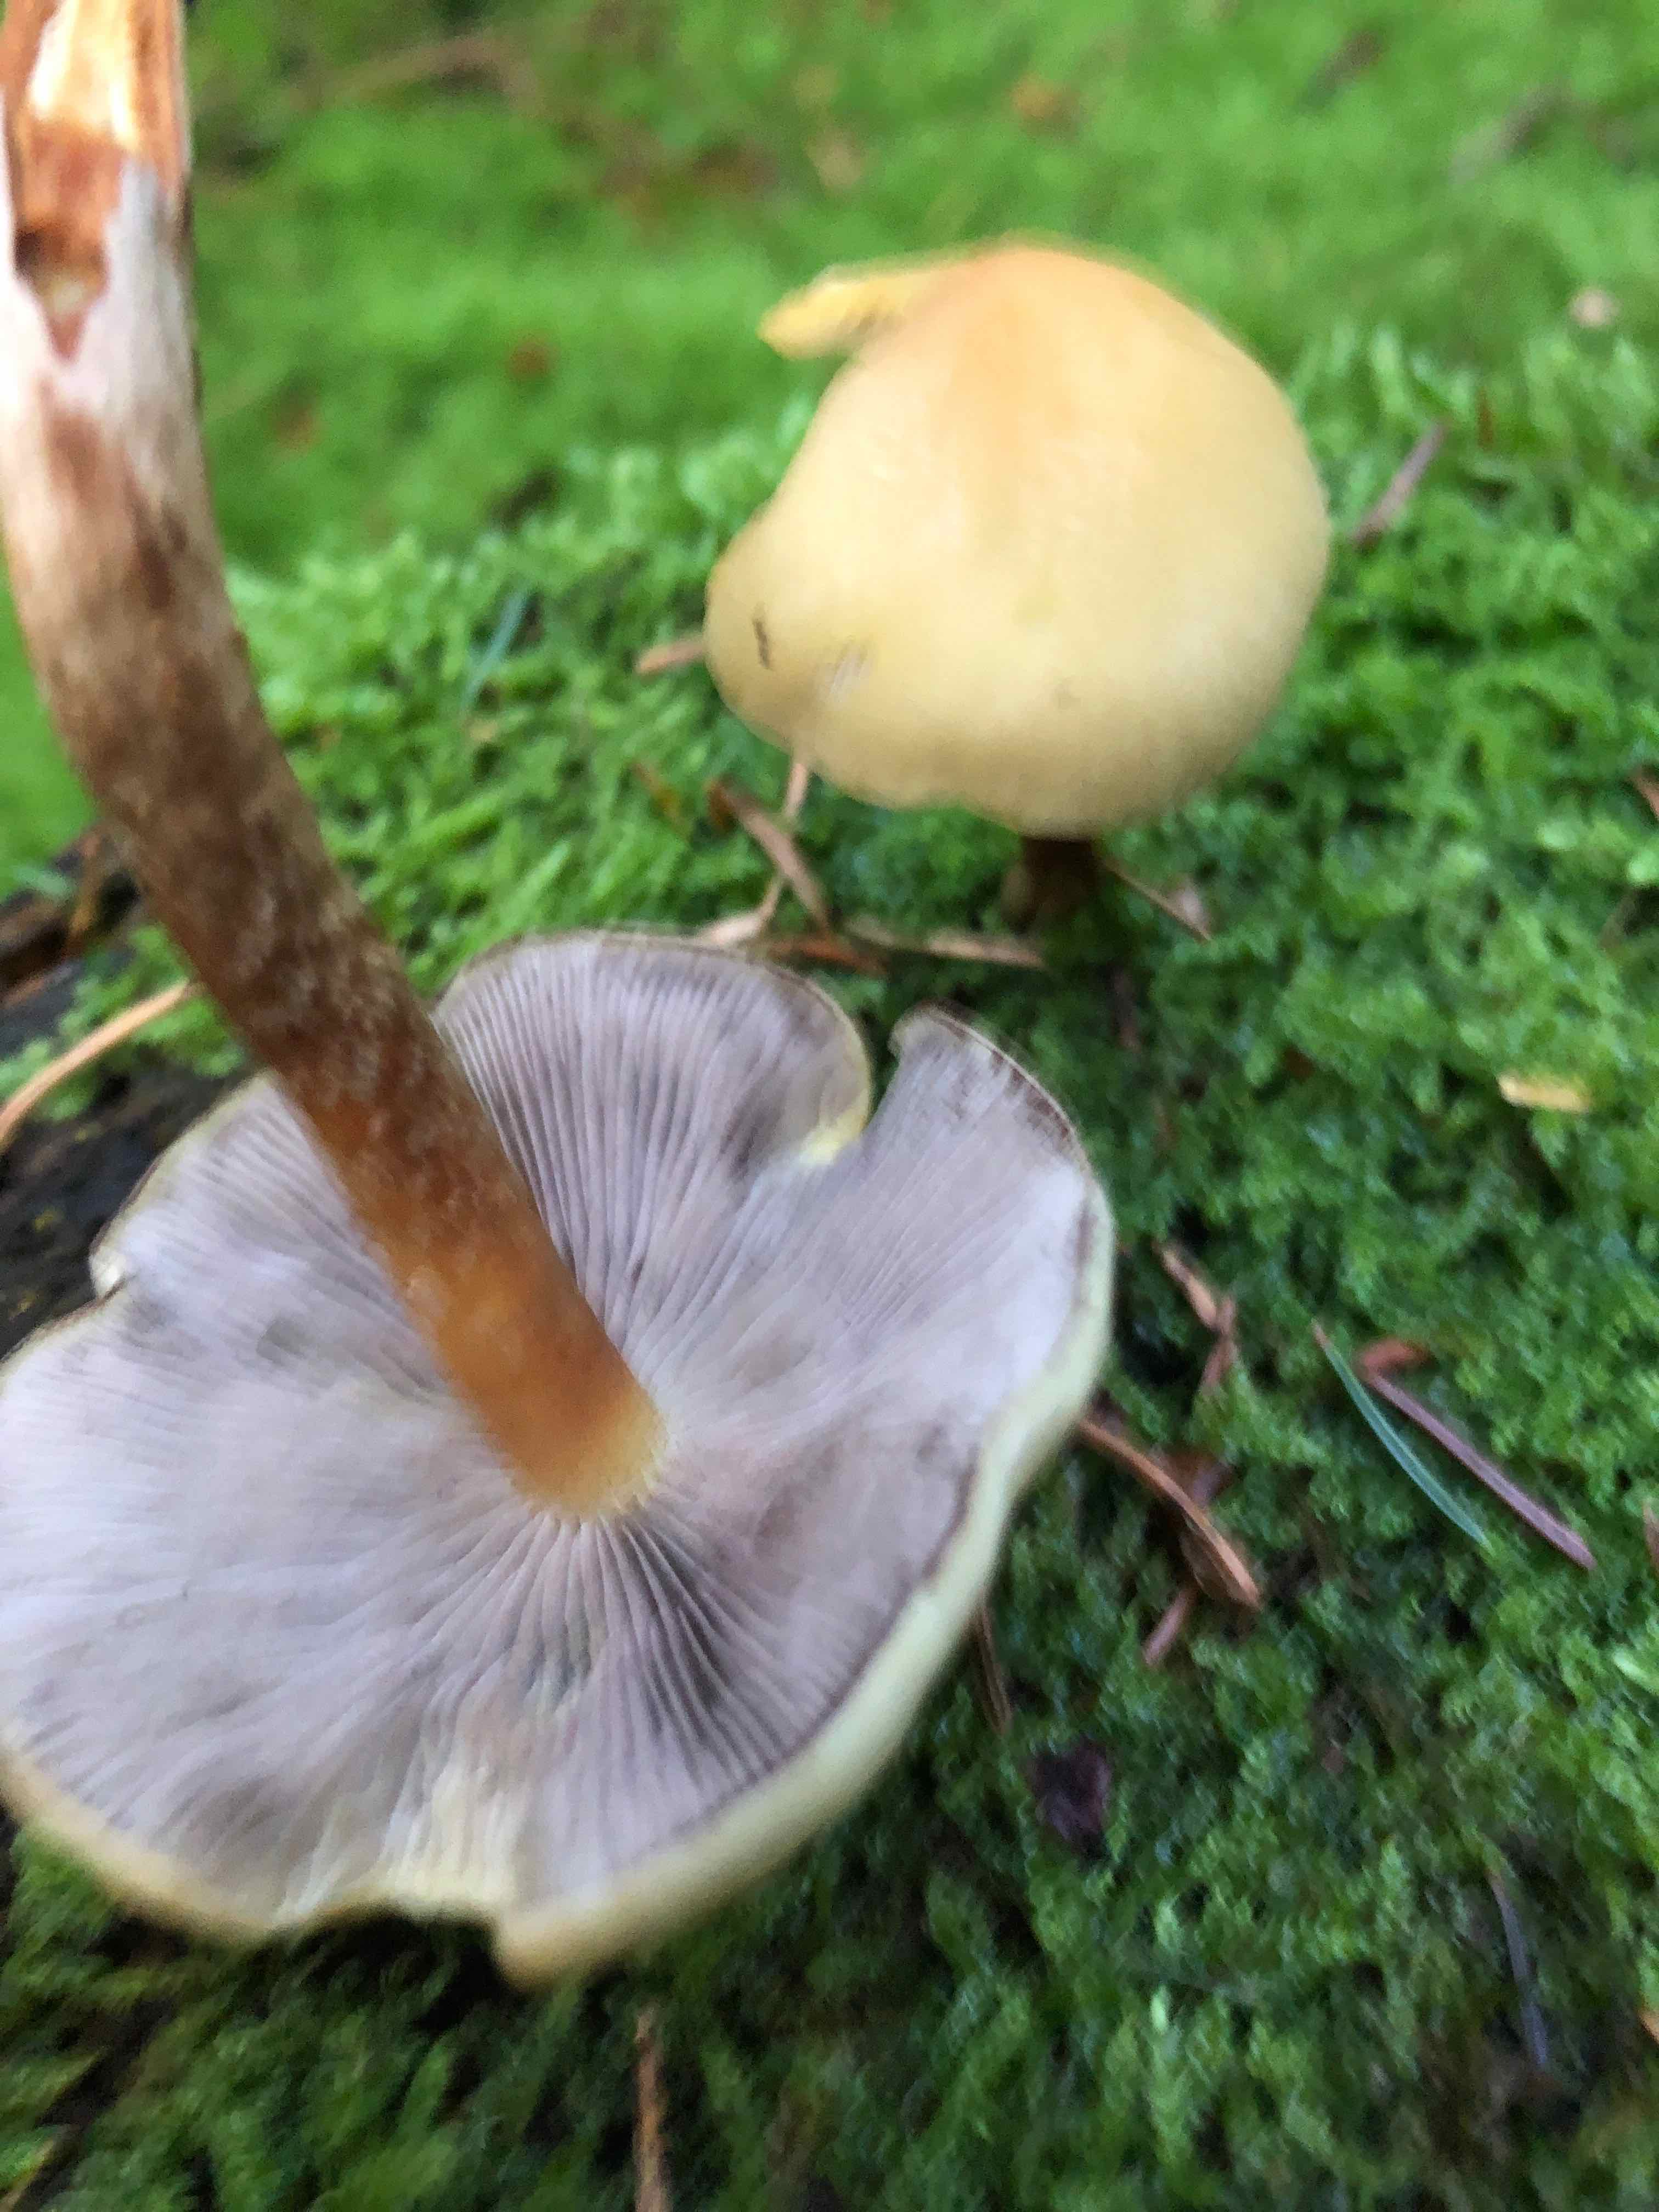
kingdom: Fungi
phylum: Basidiomycota
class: Agaricomycetes
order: Agaricales
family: Strophariaceae
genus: Hypholoma
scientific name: Hypholoma capnoides
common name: gran-svovlhat
